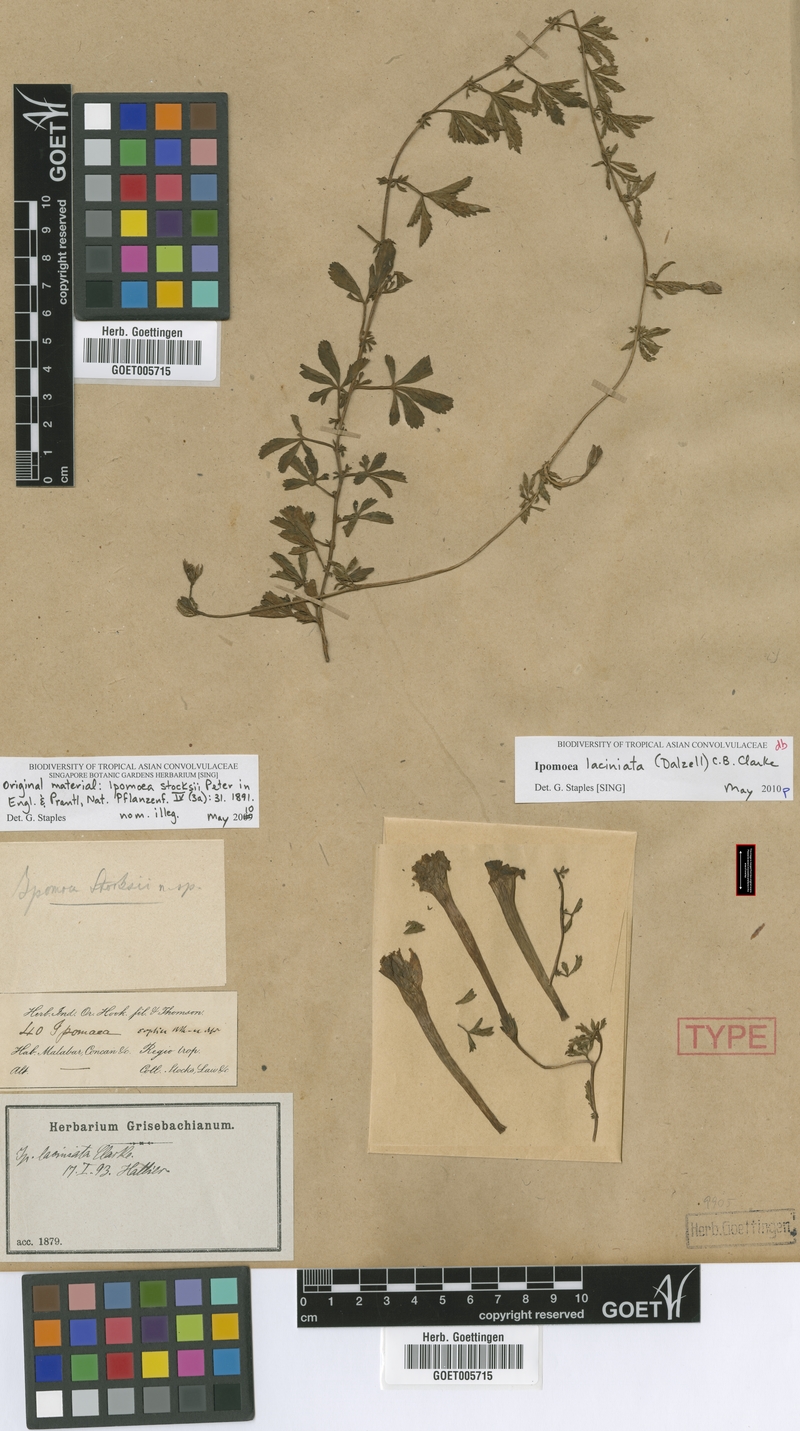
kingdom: Plantae
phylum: Tracheophyta
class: Magnoliopsida
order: Solanales
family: Convolvulaceae
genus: Ipomoea
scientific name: Ipomoea diversifolia
